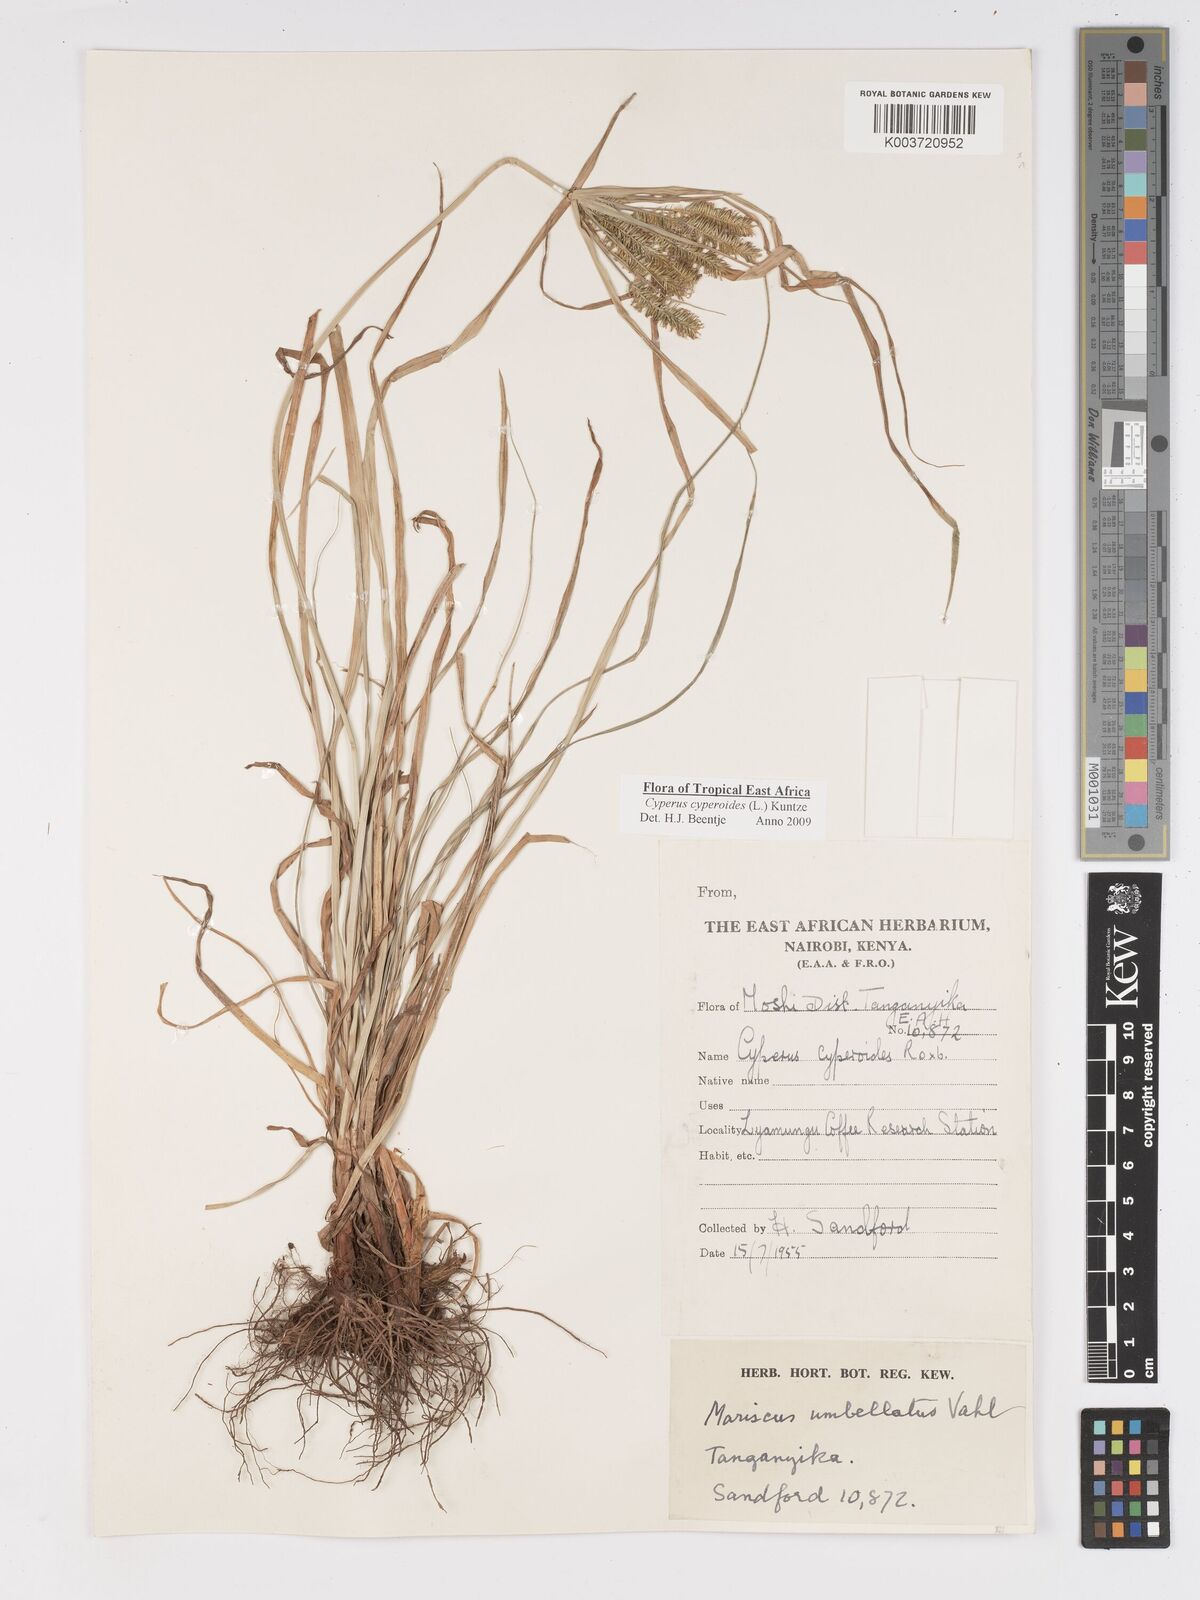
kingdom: Plantae
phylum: Tracheophyta
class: Liliopsida
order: Poales
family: Cyperaceae
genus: Cyperus
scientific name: Cyperus cyperoides
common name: Pacific island flat sedge
